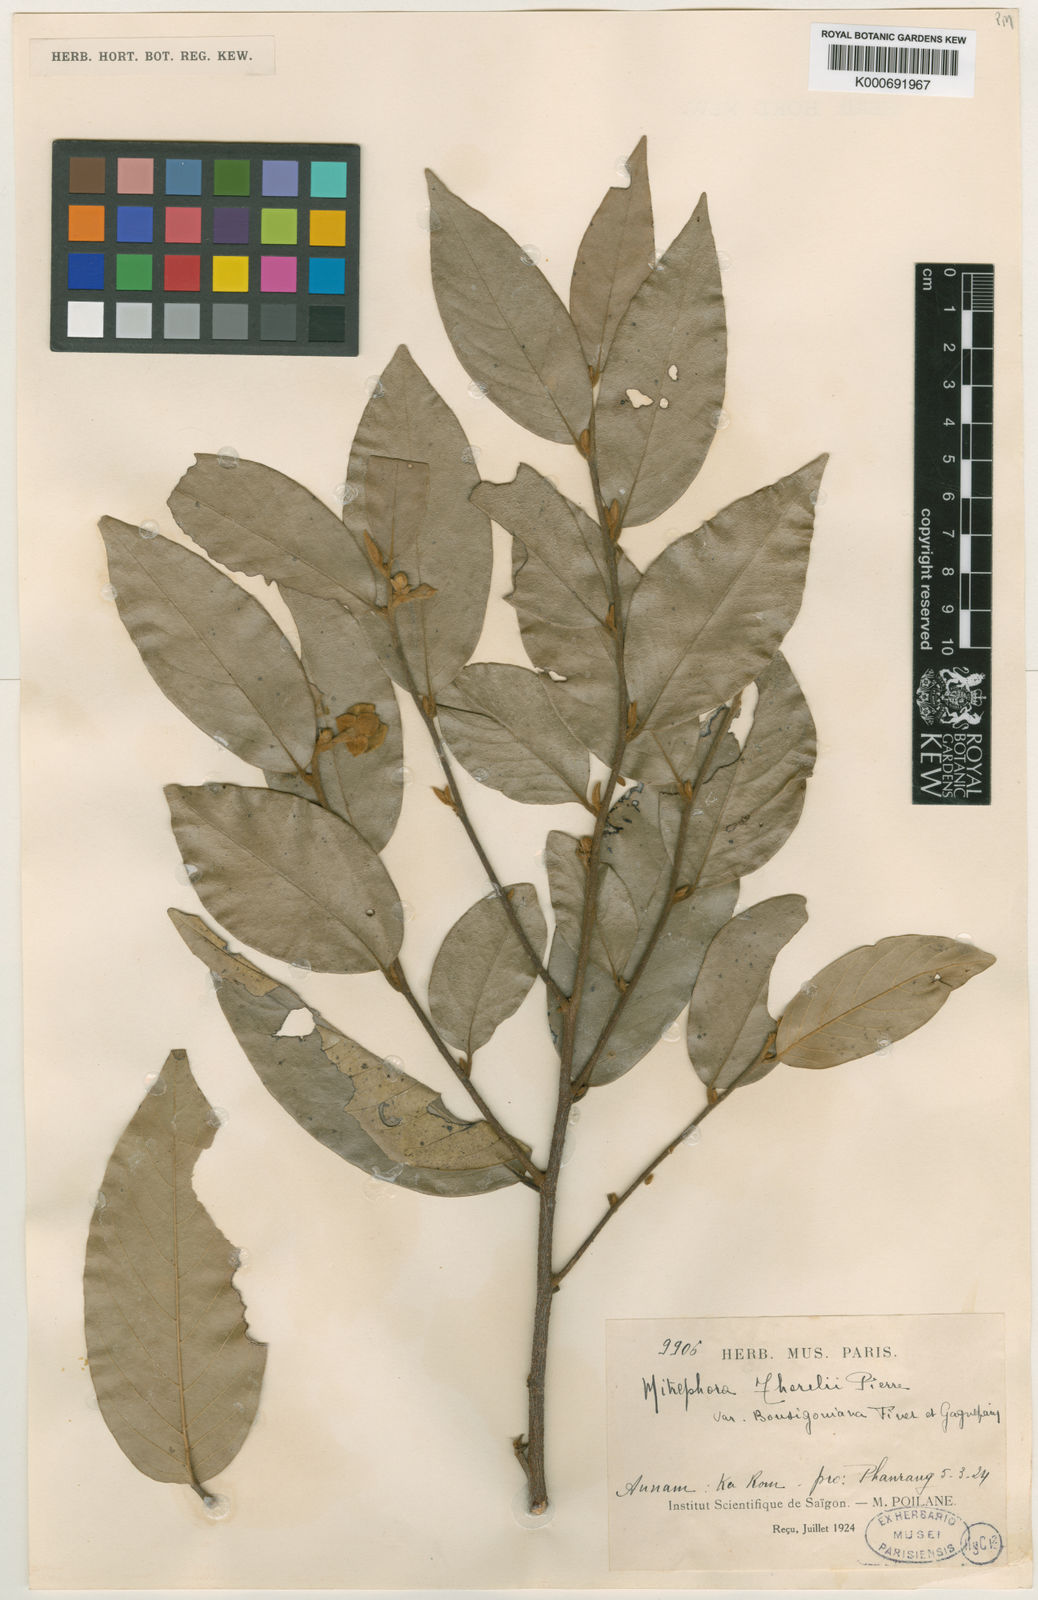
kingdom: Plantae
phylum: Tracheophyta
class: Magnoliopsida
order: Magnoliales
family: Annonaceae
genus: Mitrephora
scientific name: Mitrephora tomentosa
